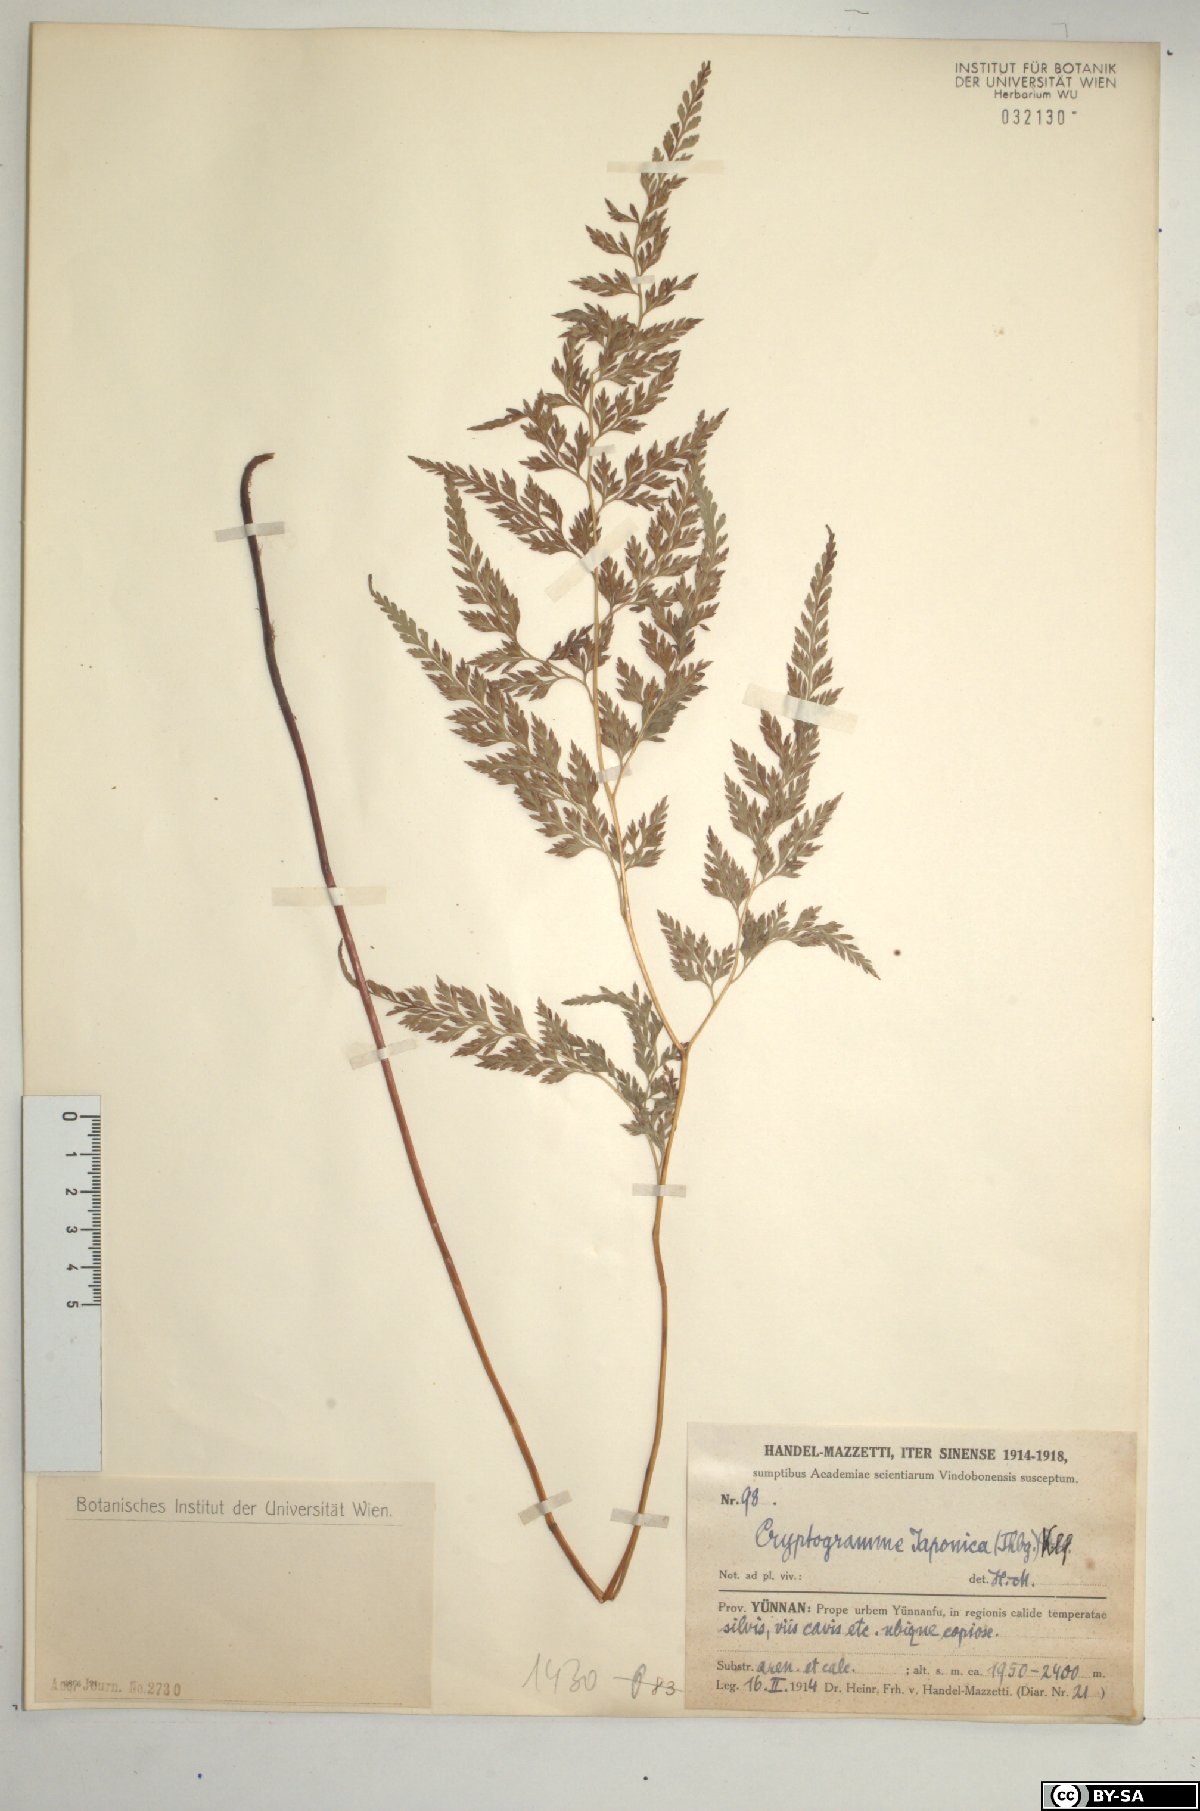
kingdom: Plantae
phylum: Tracheophyta
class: Polypodiopsida
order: Polypodiales
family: Pteridaceae
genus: Onychium
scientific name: Onychium japonicum
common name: Carrot fern
